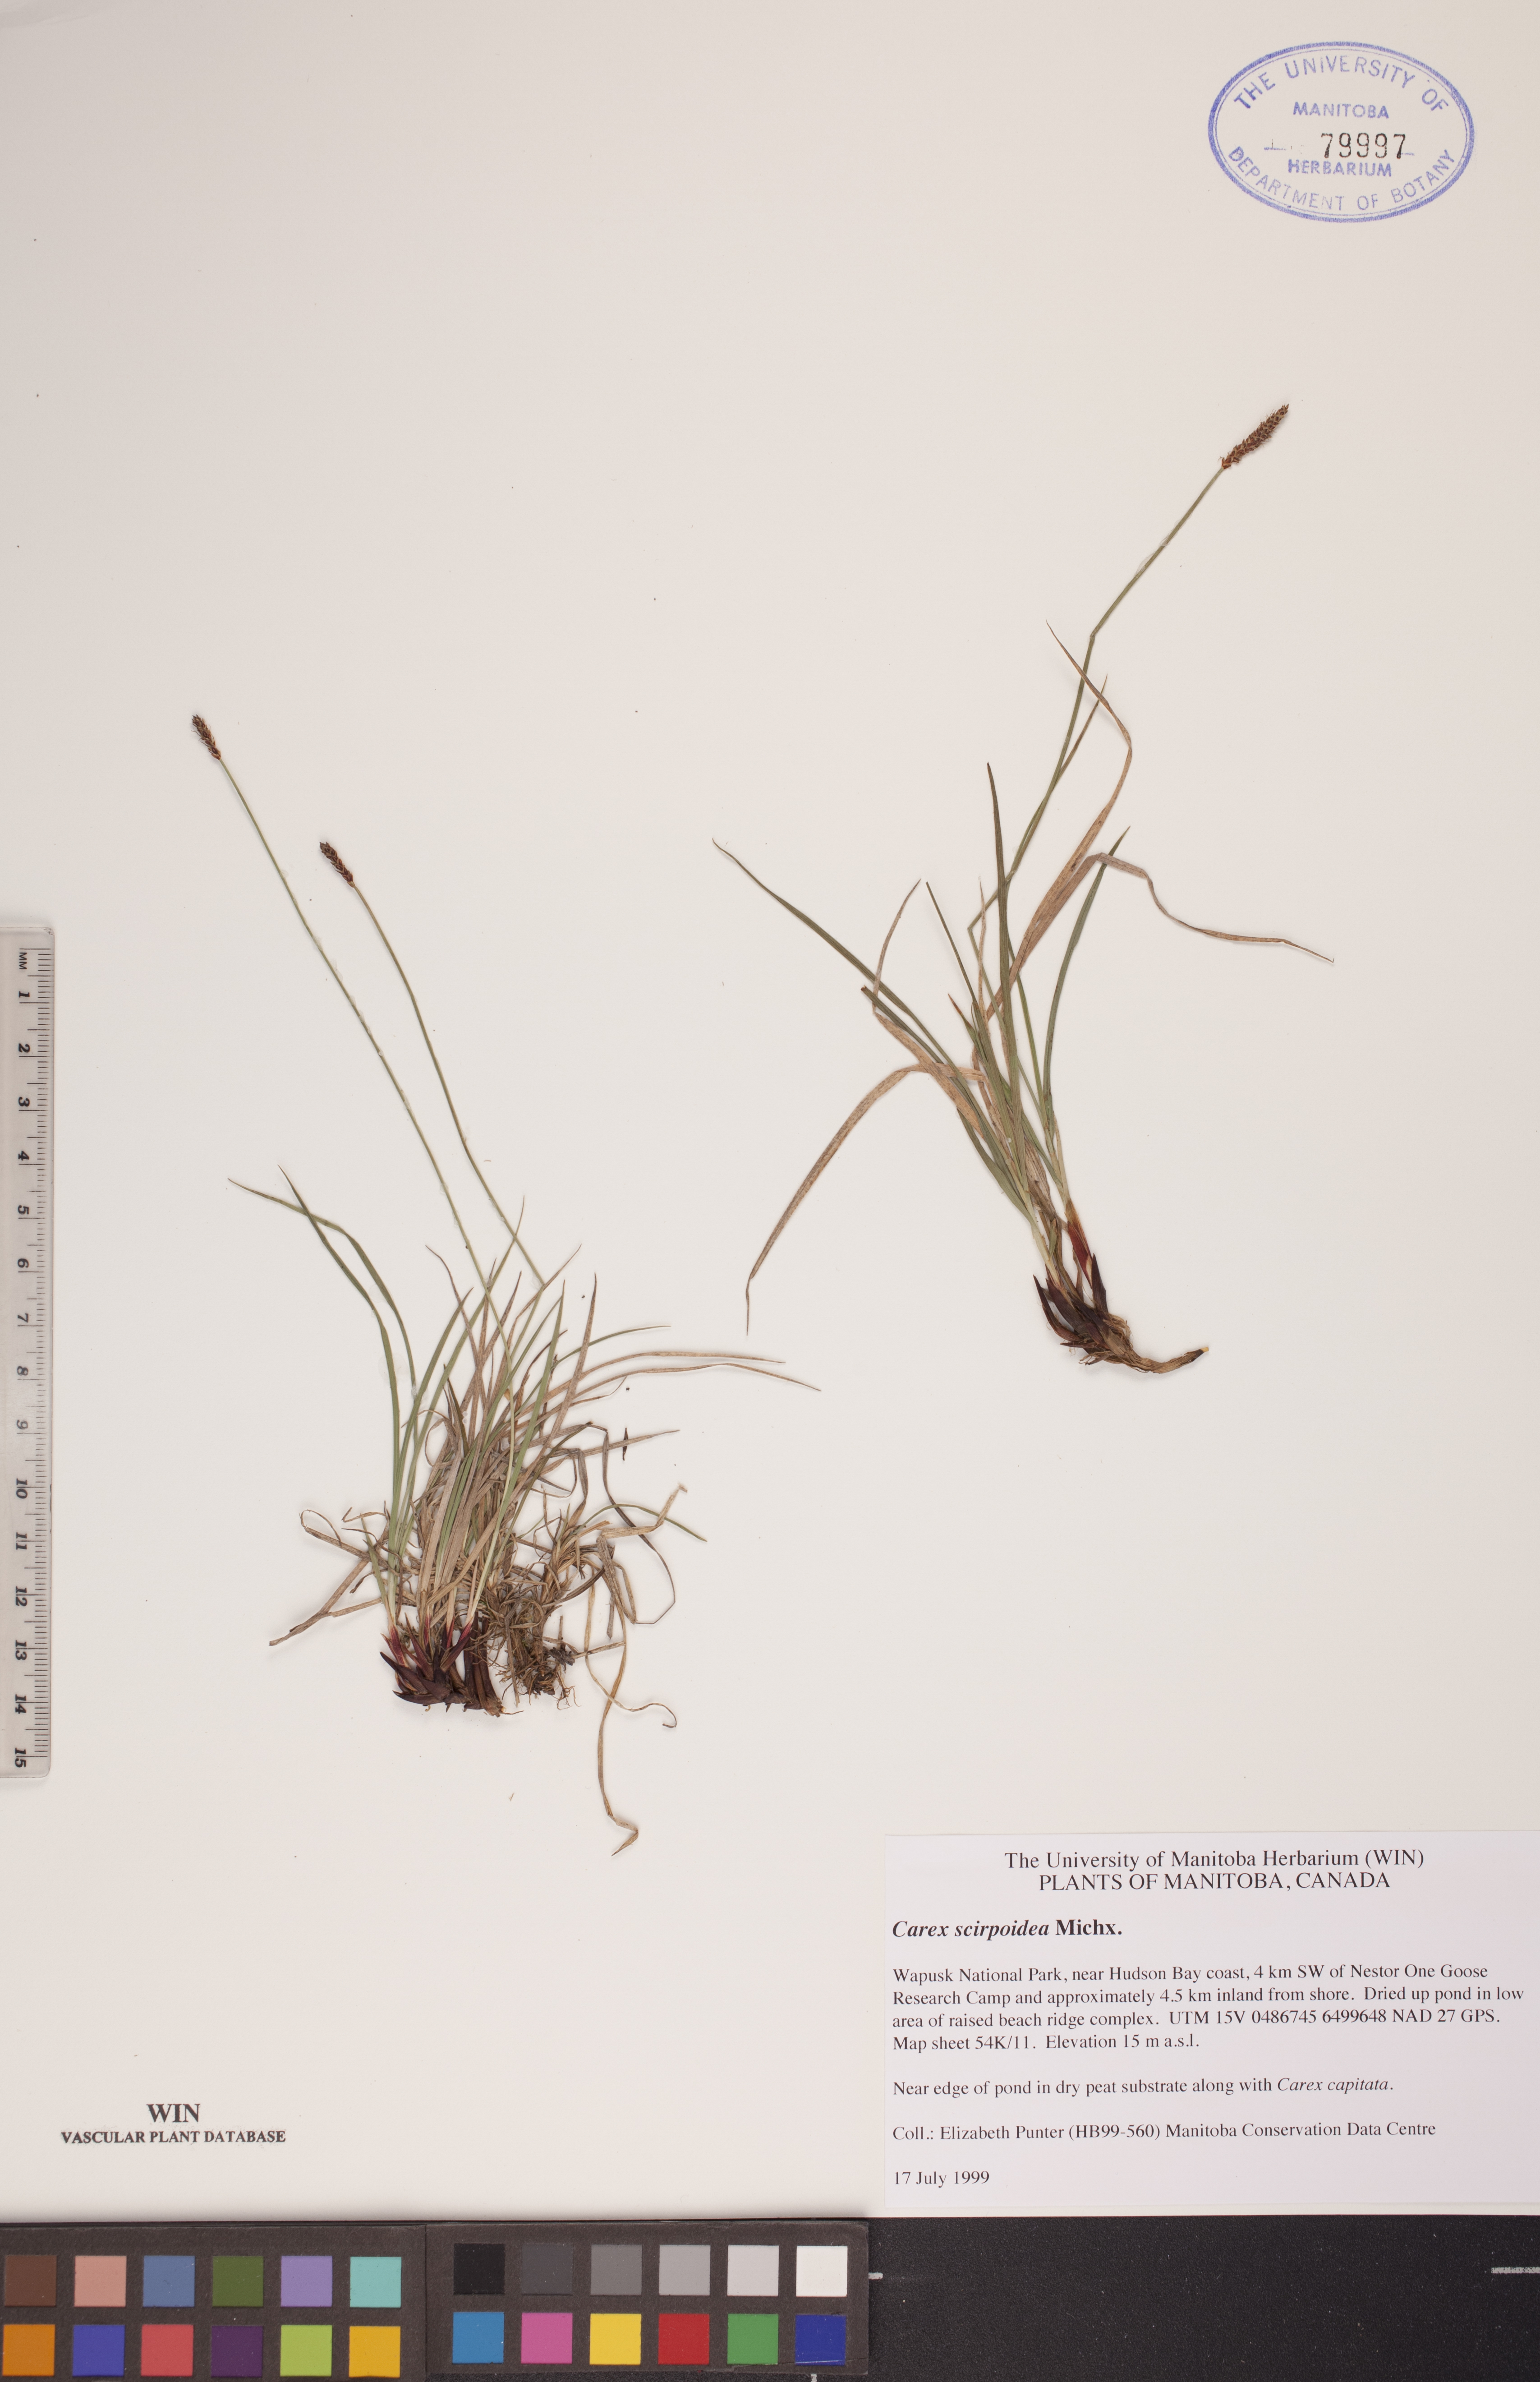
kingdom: Plantae
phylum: Tracheophyta
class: Liliopsida
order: Poales
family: Cyperaceae
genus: Carex
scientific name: Carex scirpoidea
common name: Canada single-spike sedge
